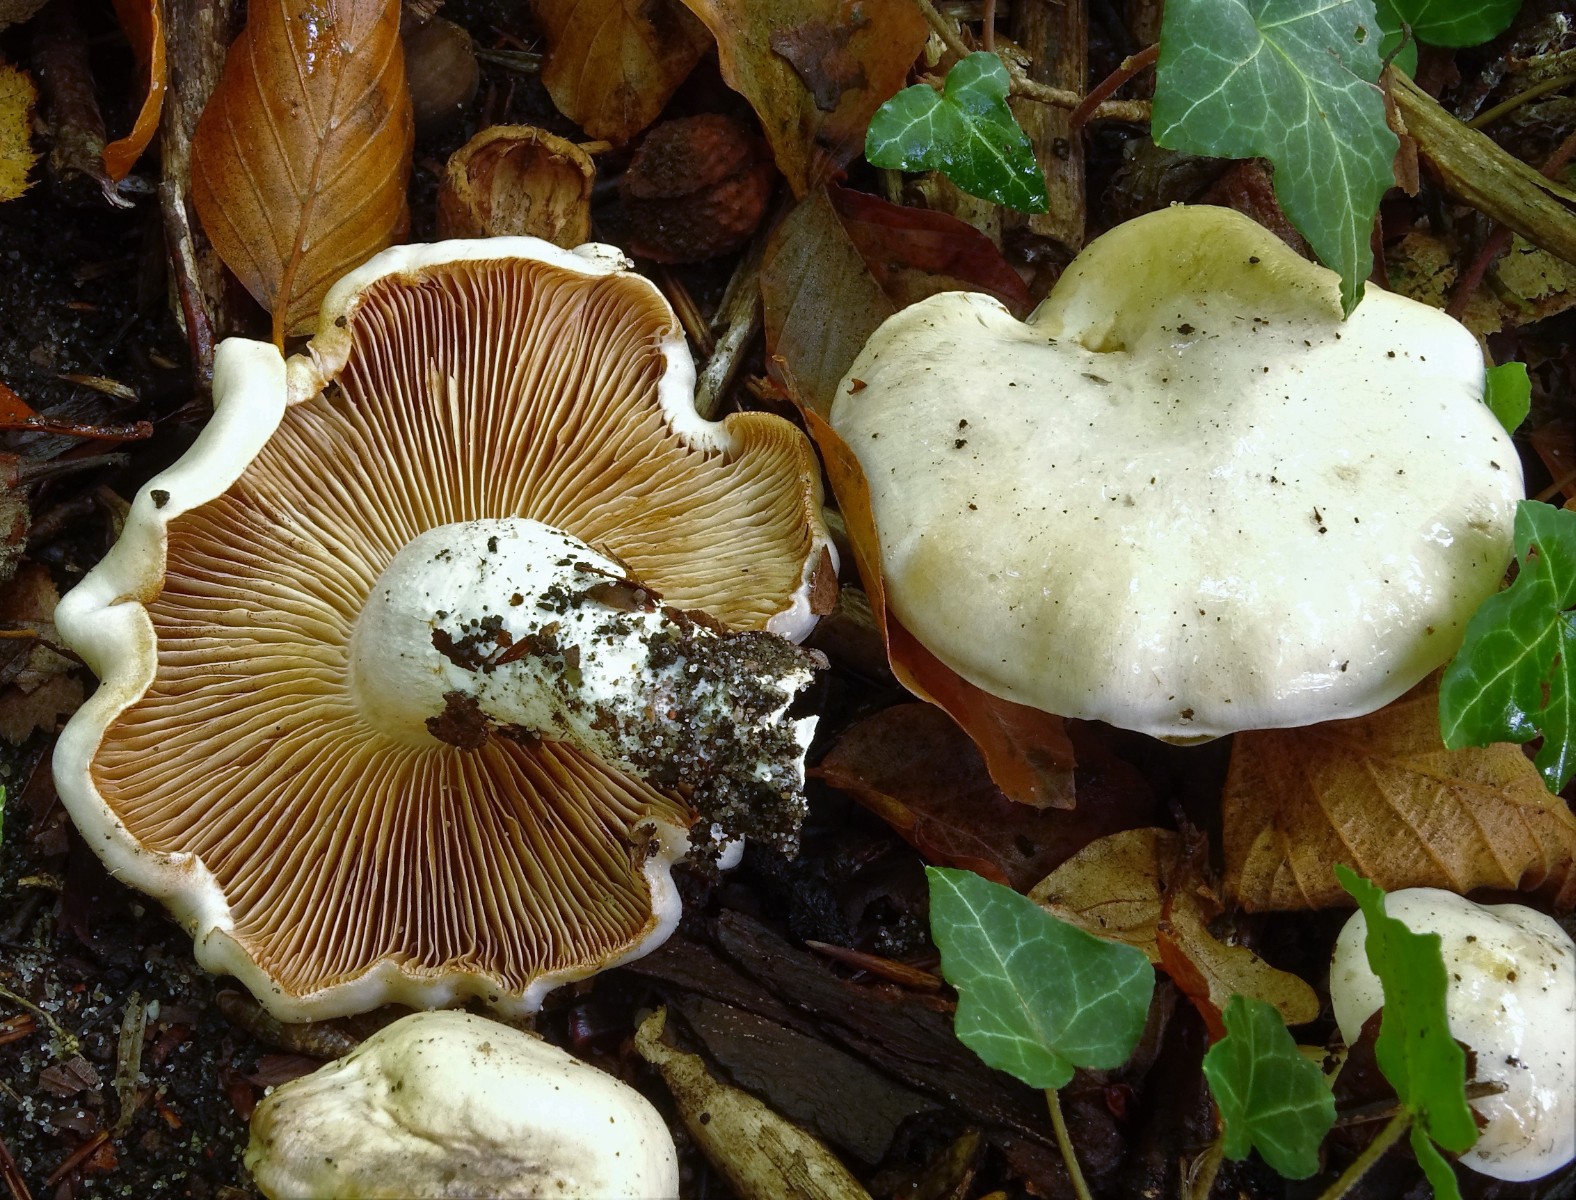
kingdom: Fungi
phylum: Basidiomycota
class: Agaricomycetes
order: Agaricales
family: Cortinariaceae
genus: Thaxterogaster
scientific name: Thaxterogaster barbatus
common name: elfenbens-slørhat
